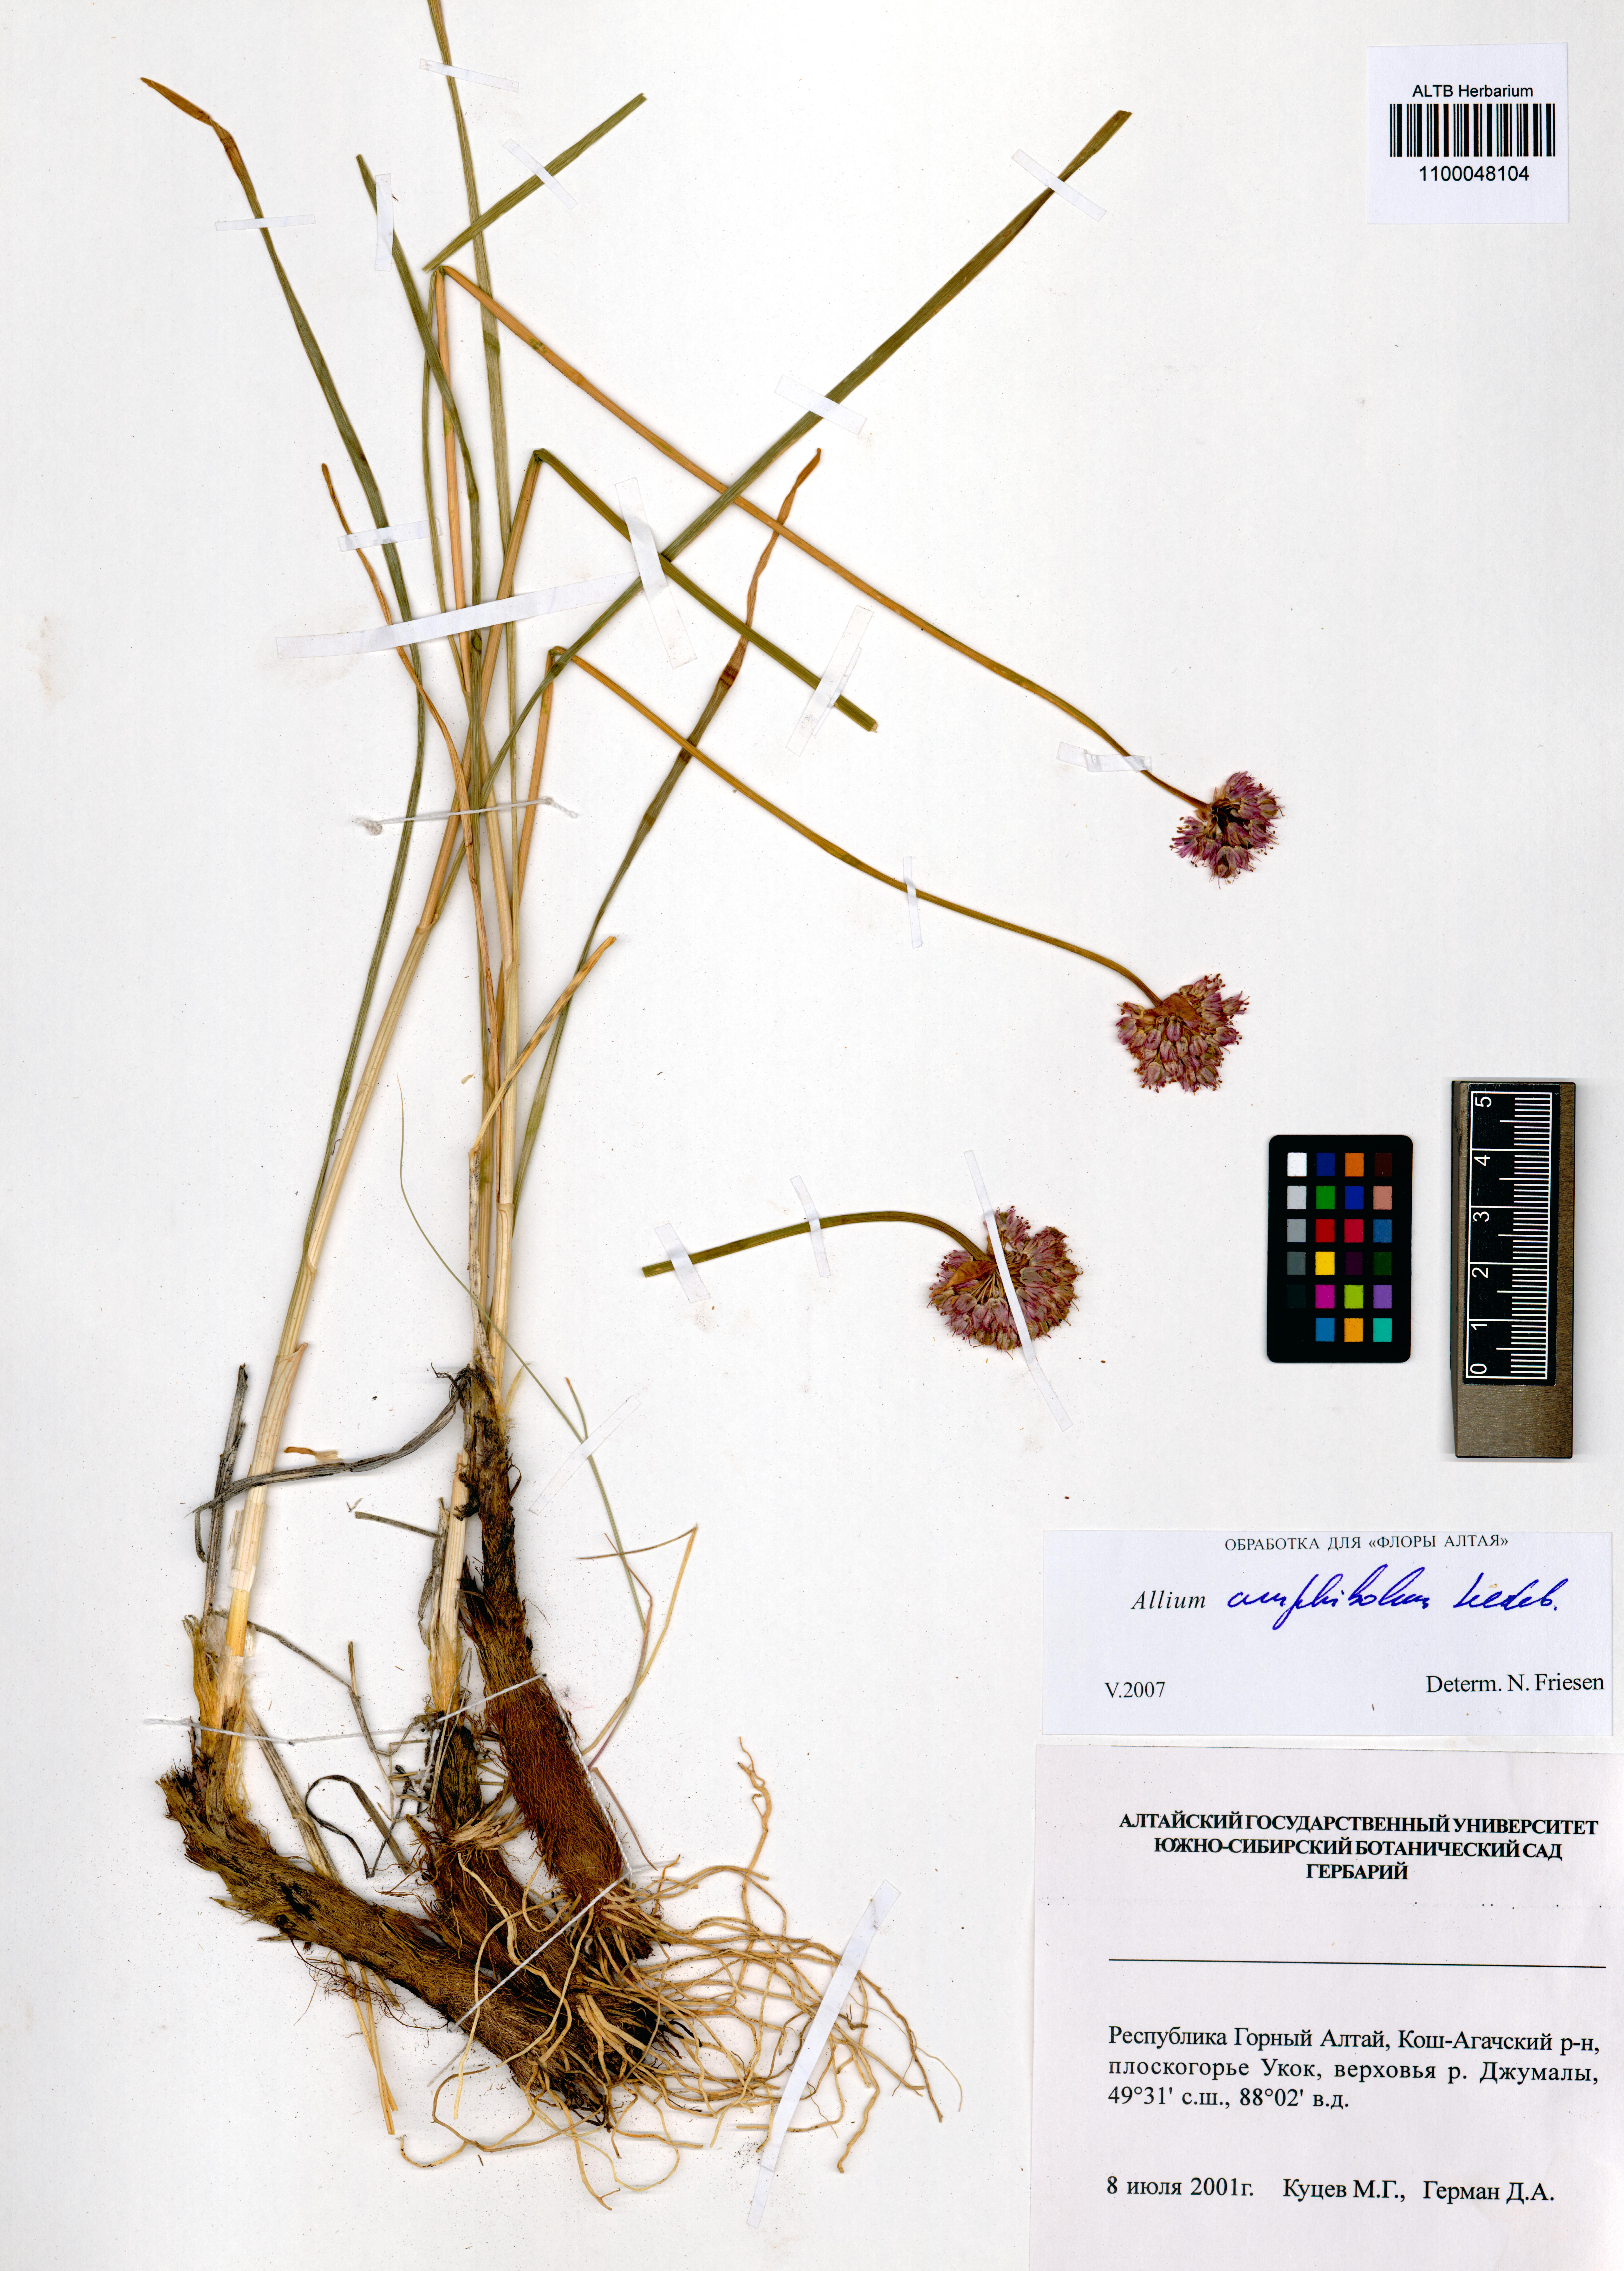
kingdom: Plantae
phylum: Tracheophyta
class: Liliopsida
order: Asparagales
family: Amaryllidaceae
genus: Allium
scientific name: Allium amphibolum
